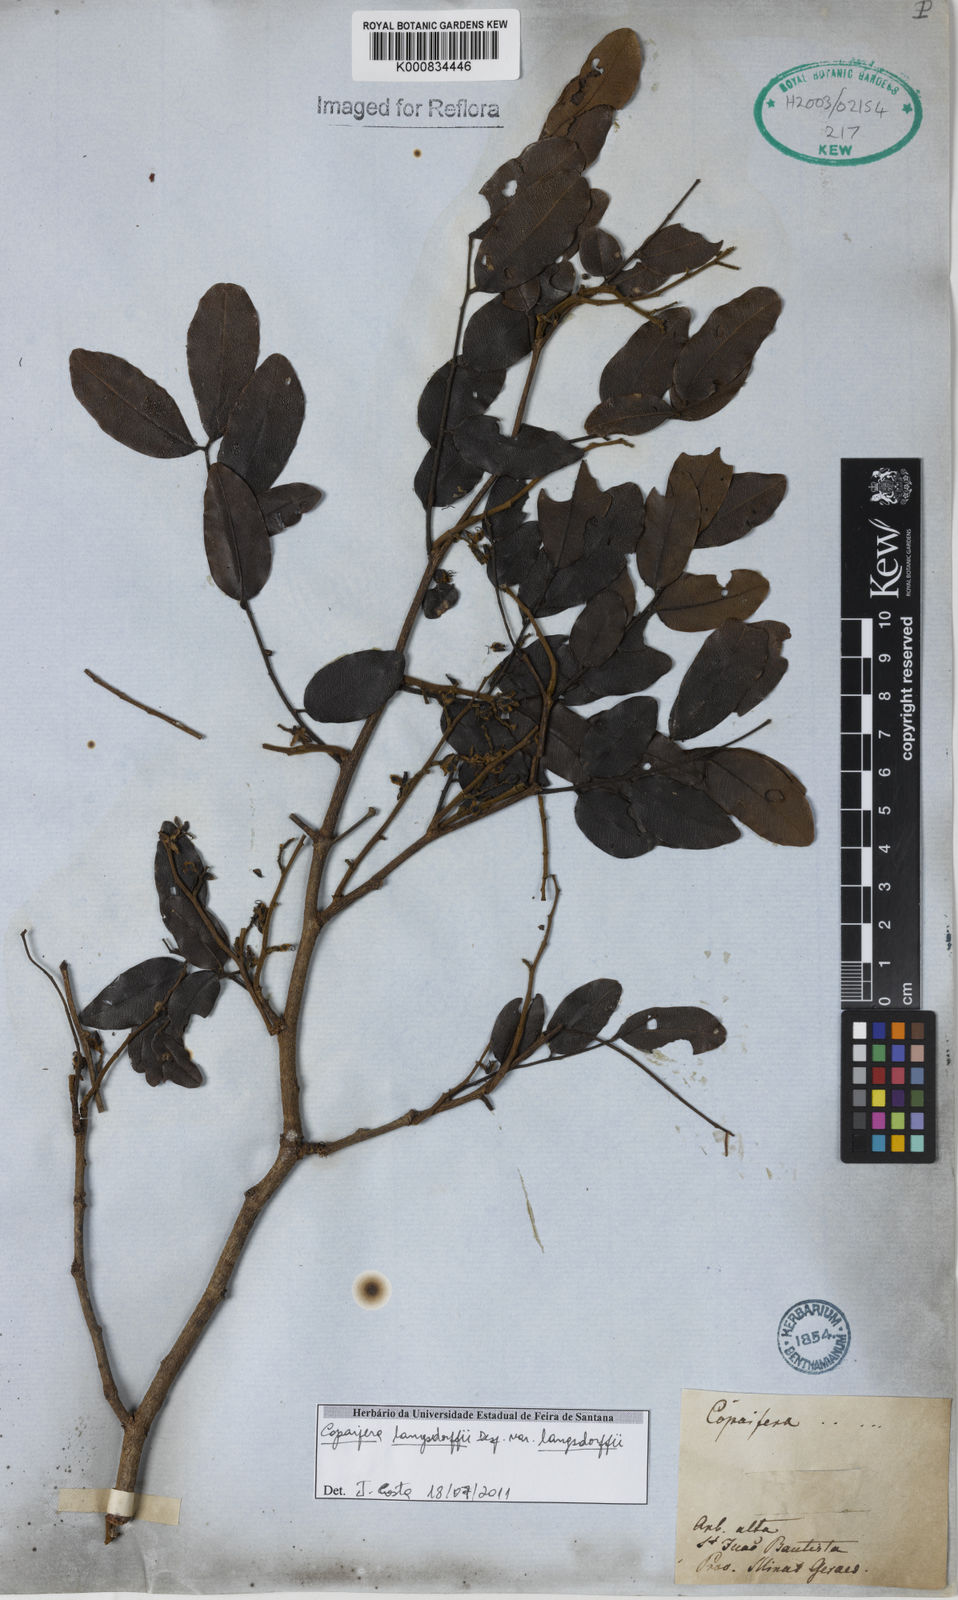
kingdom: Plantae
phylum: Tracheophyta
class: Magnoliopsida
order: Fabales
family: Fabaceae
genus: Copaifera
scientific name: Copaifera langsdorffii
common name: Brazilian diesel tree
